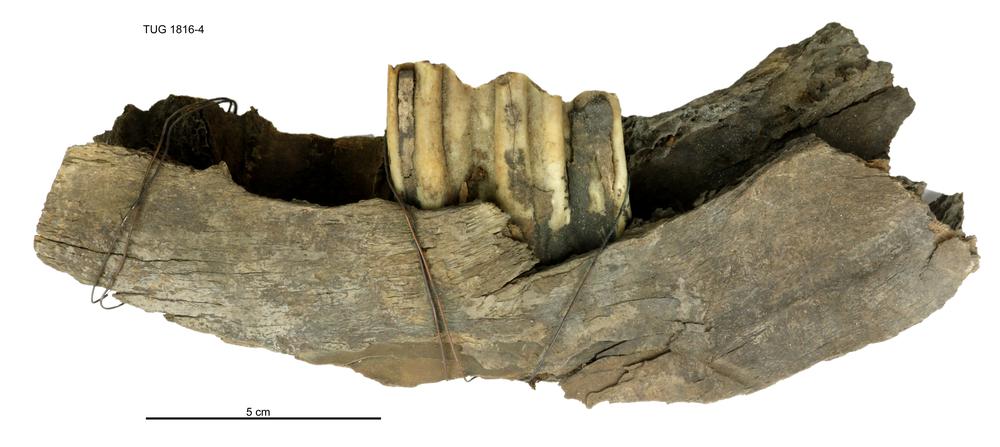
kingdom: Animalia
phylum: Chordata
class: Mammalia
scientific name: Mammalia
